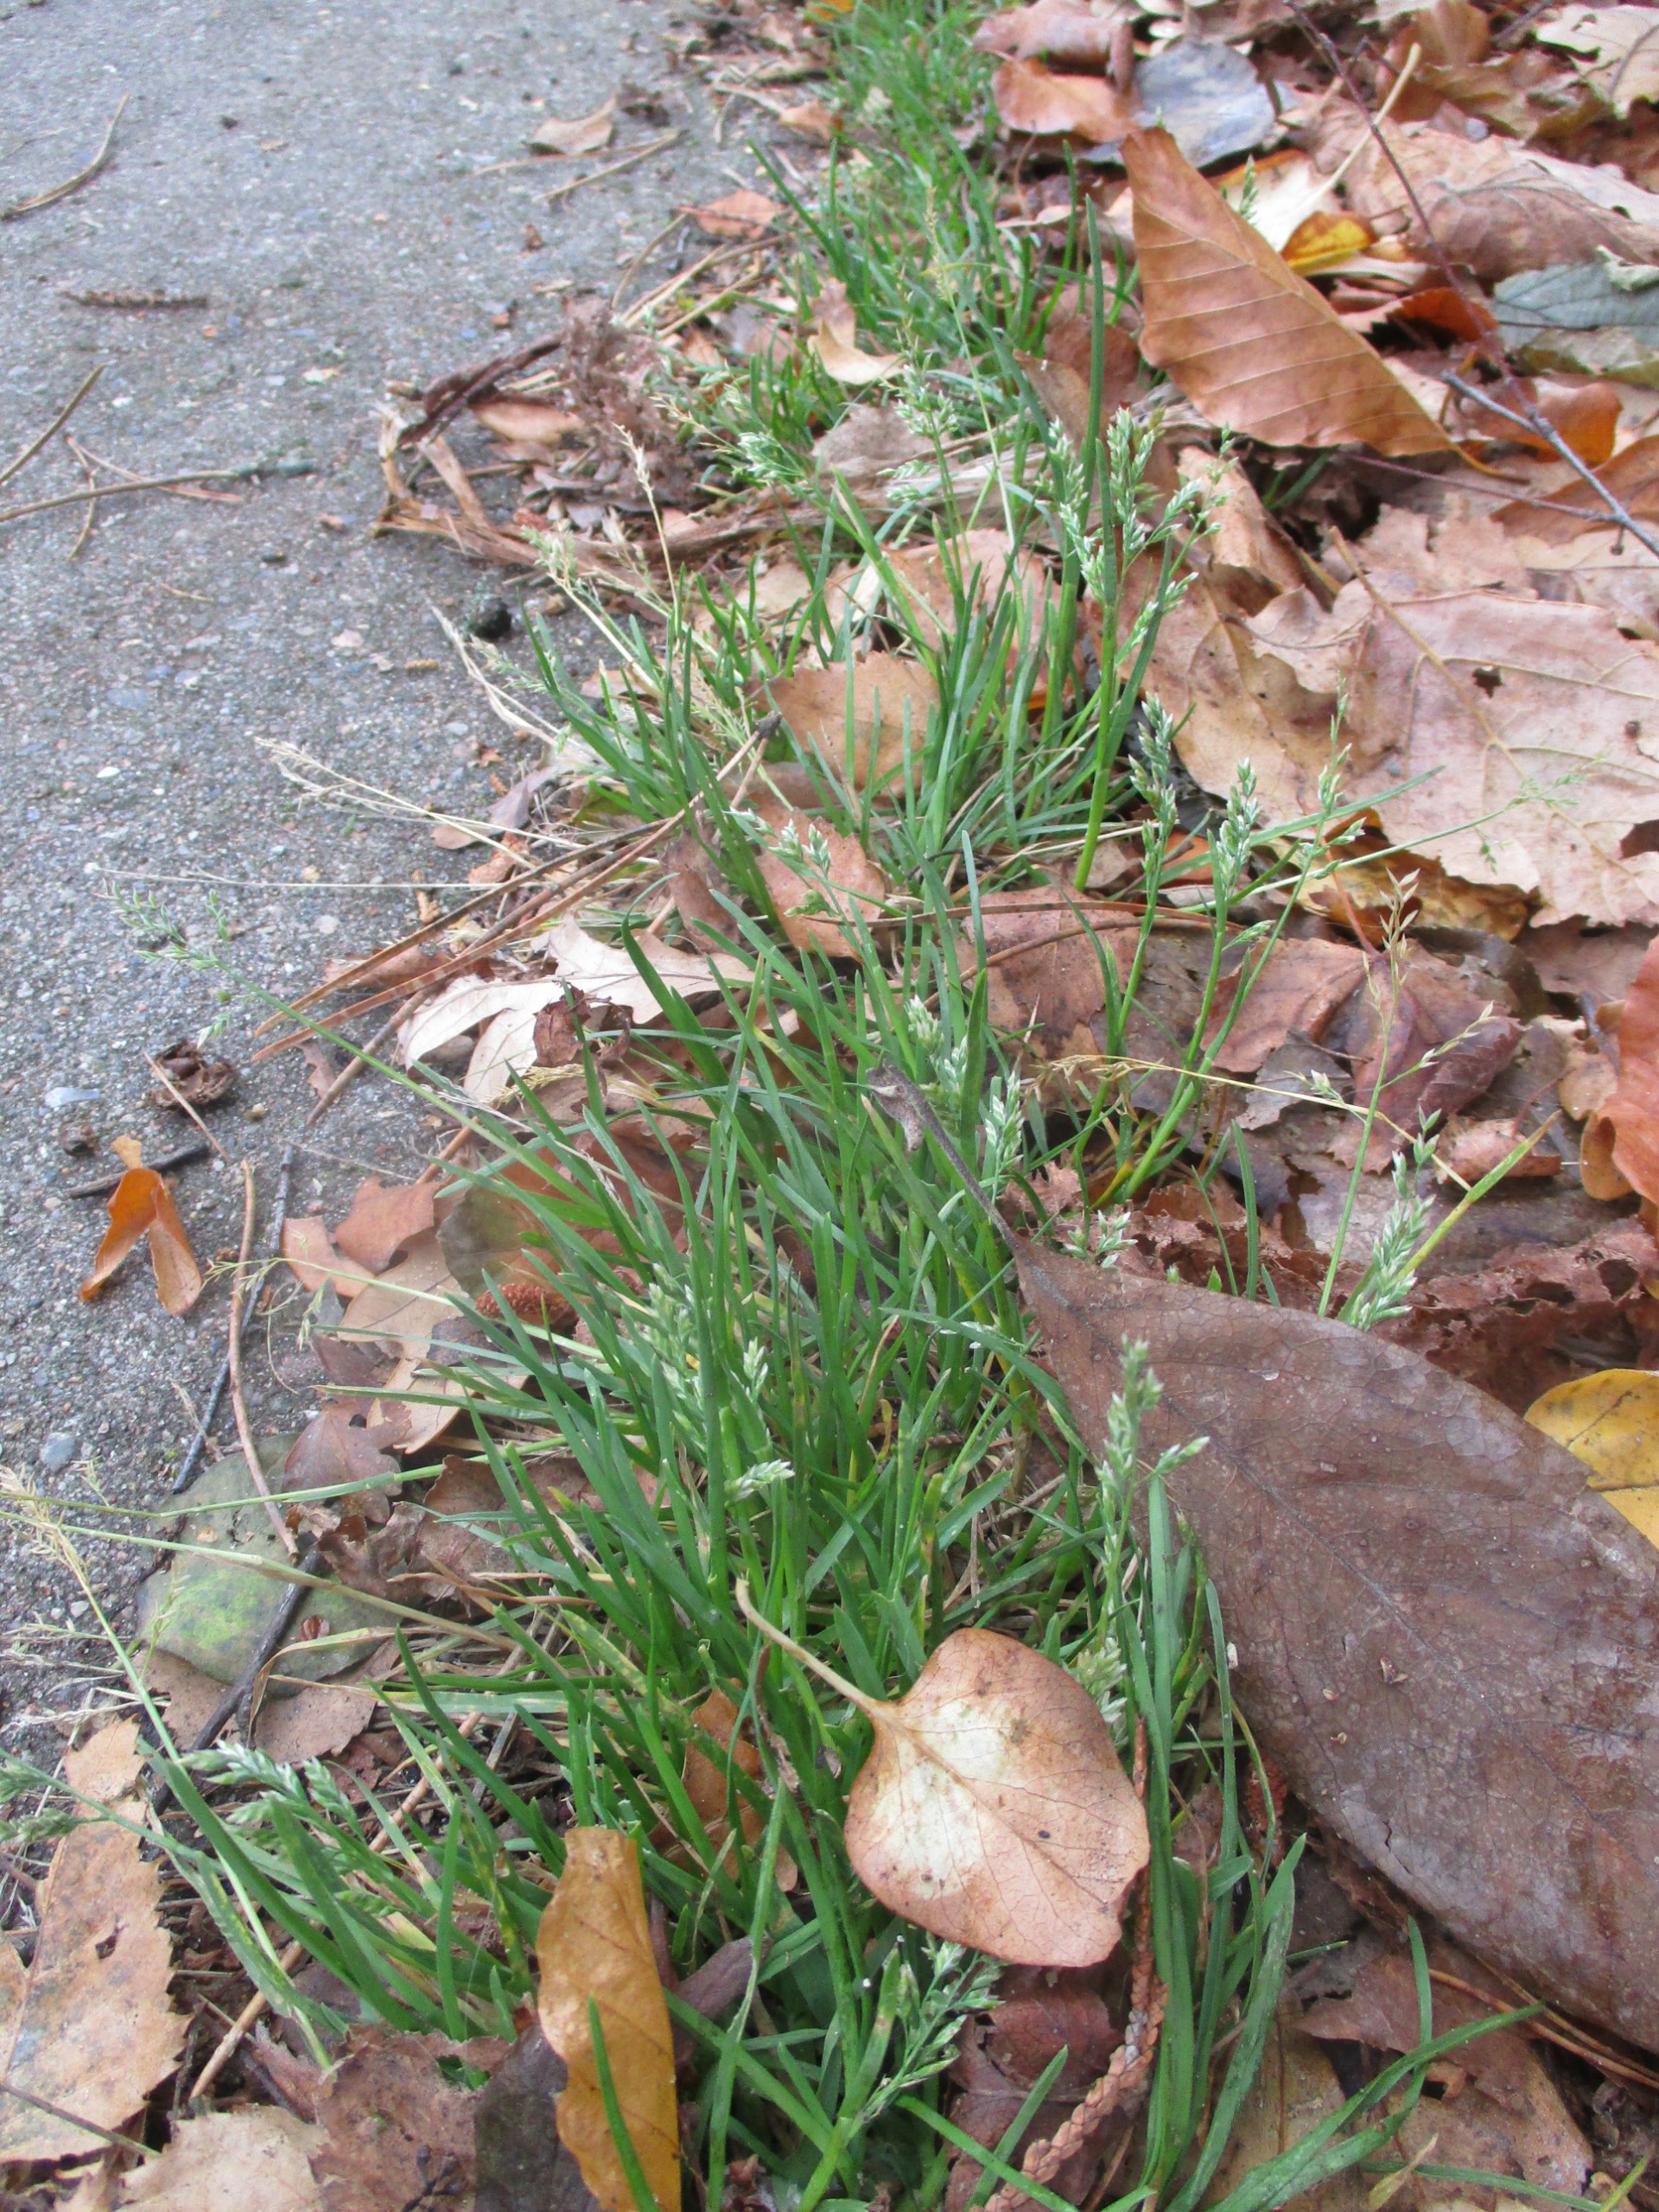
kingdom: Plantae
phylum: Tracheophyta
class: Liliopsida
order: Poales
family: Poaceae
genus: Poa
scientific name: Poa annua
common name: Enårig rapgræs
